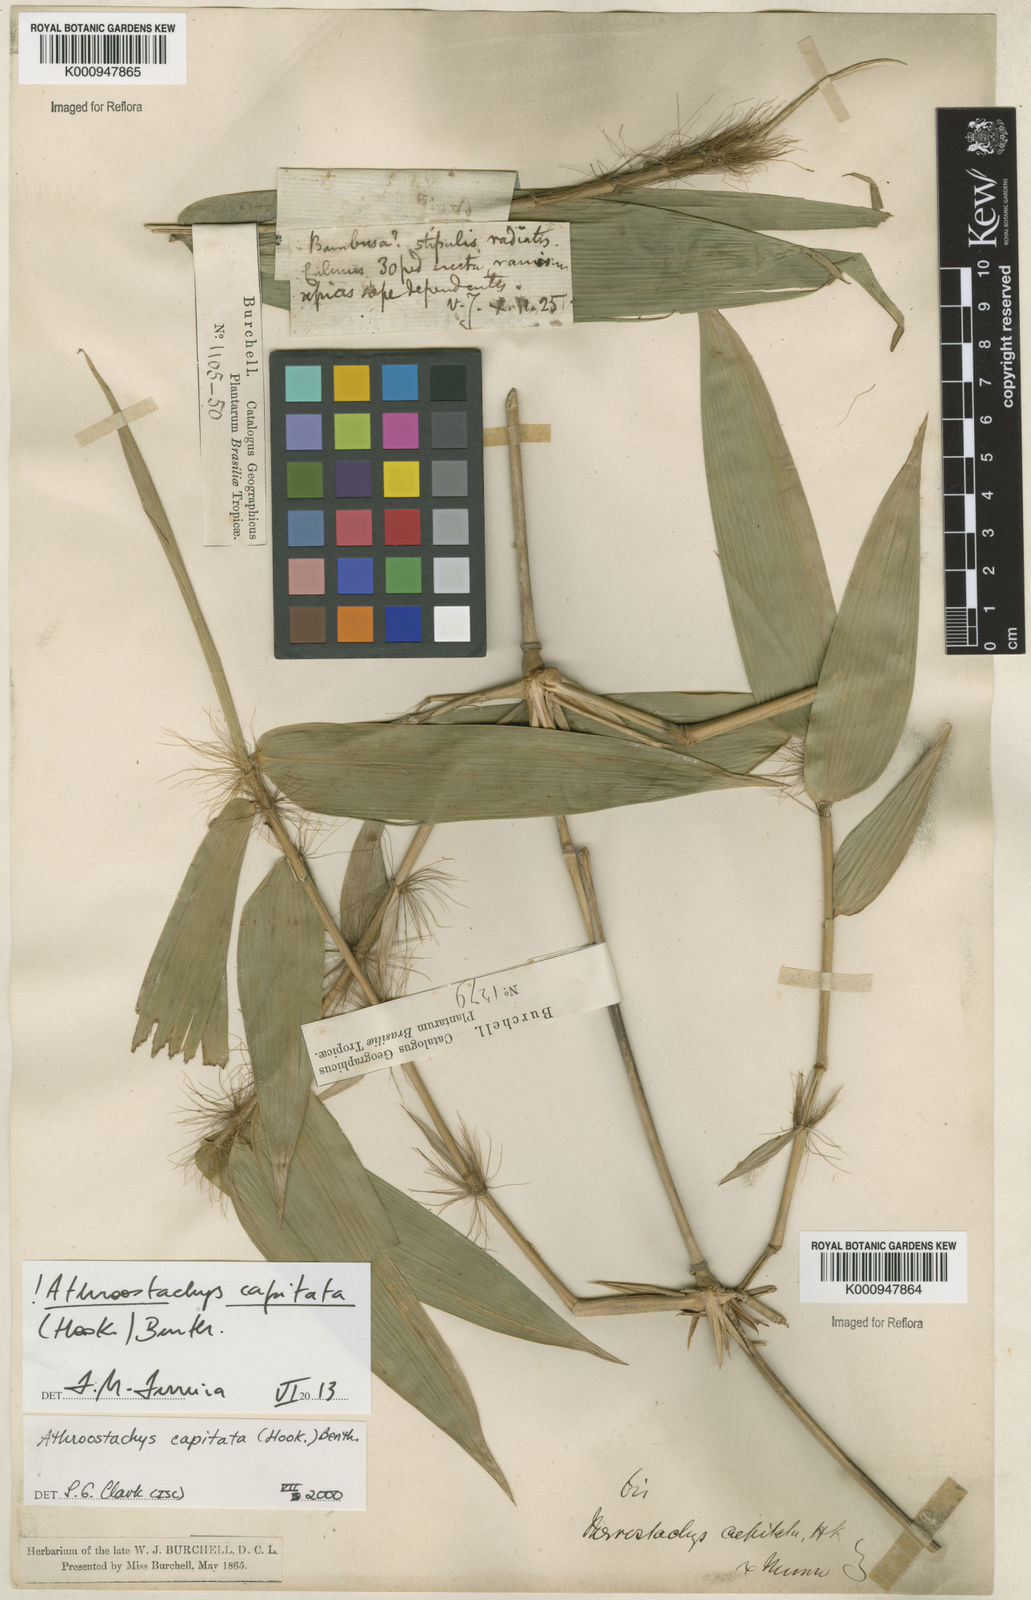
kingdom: Plantae
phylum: Tracheophyta
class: Liliopsida
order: Poales
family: Poaceae
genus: Athroostachys
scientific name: Athroostachys capitata
